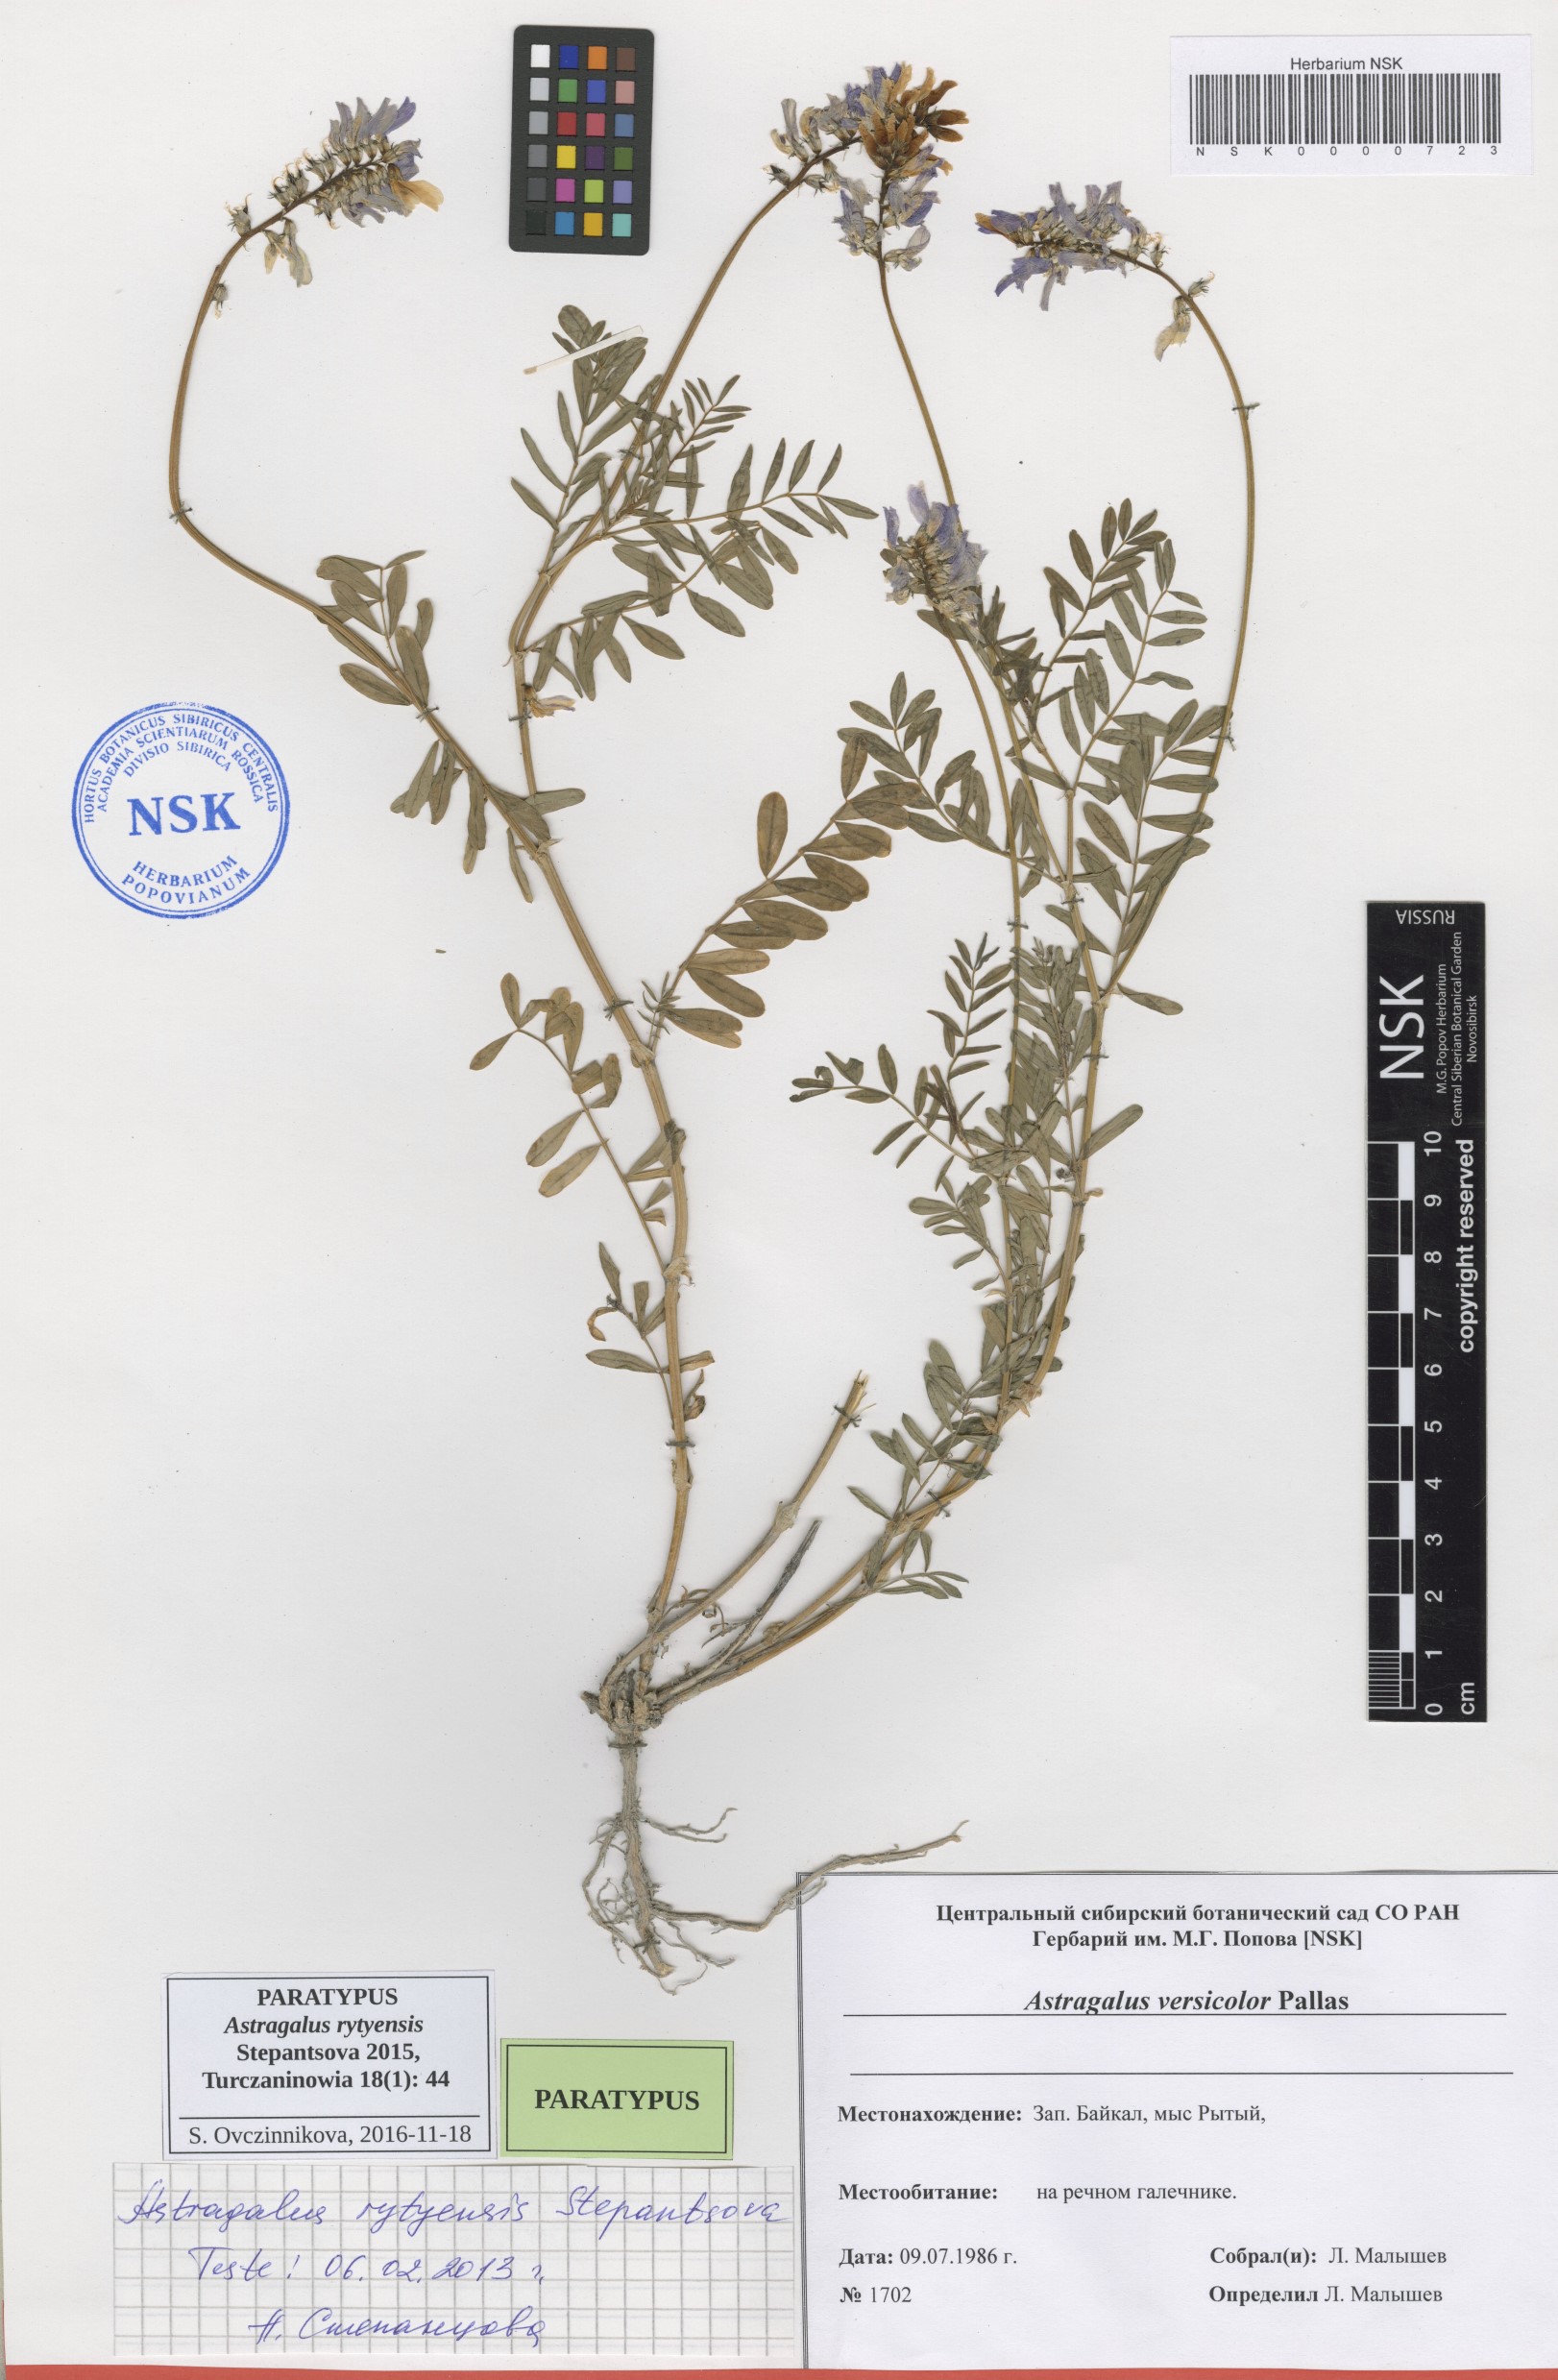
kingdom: Plantae
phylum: Tracheophyta
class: Magnoliopsida
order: Fabales
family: Fabaceae
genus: Astragalus
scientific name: Astragalus rytyensis
